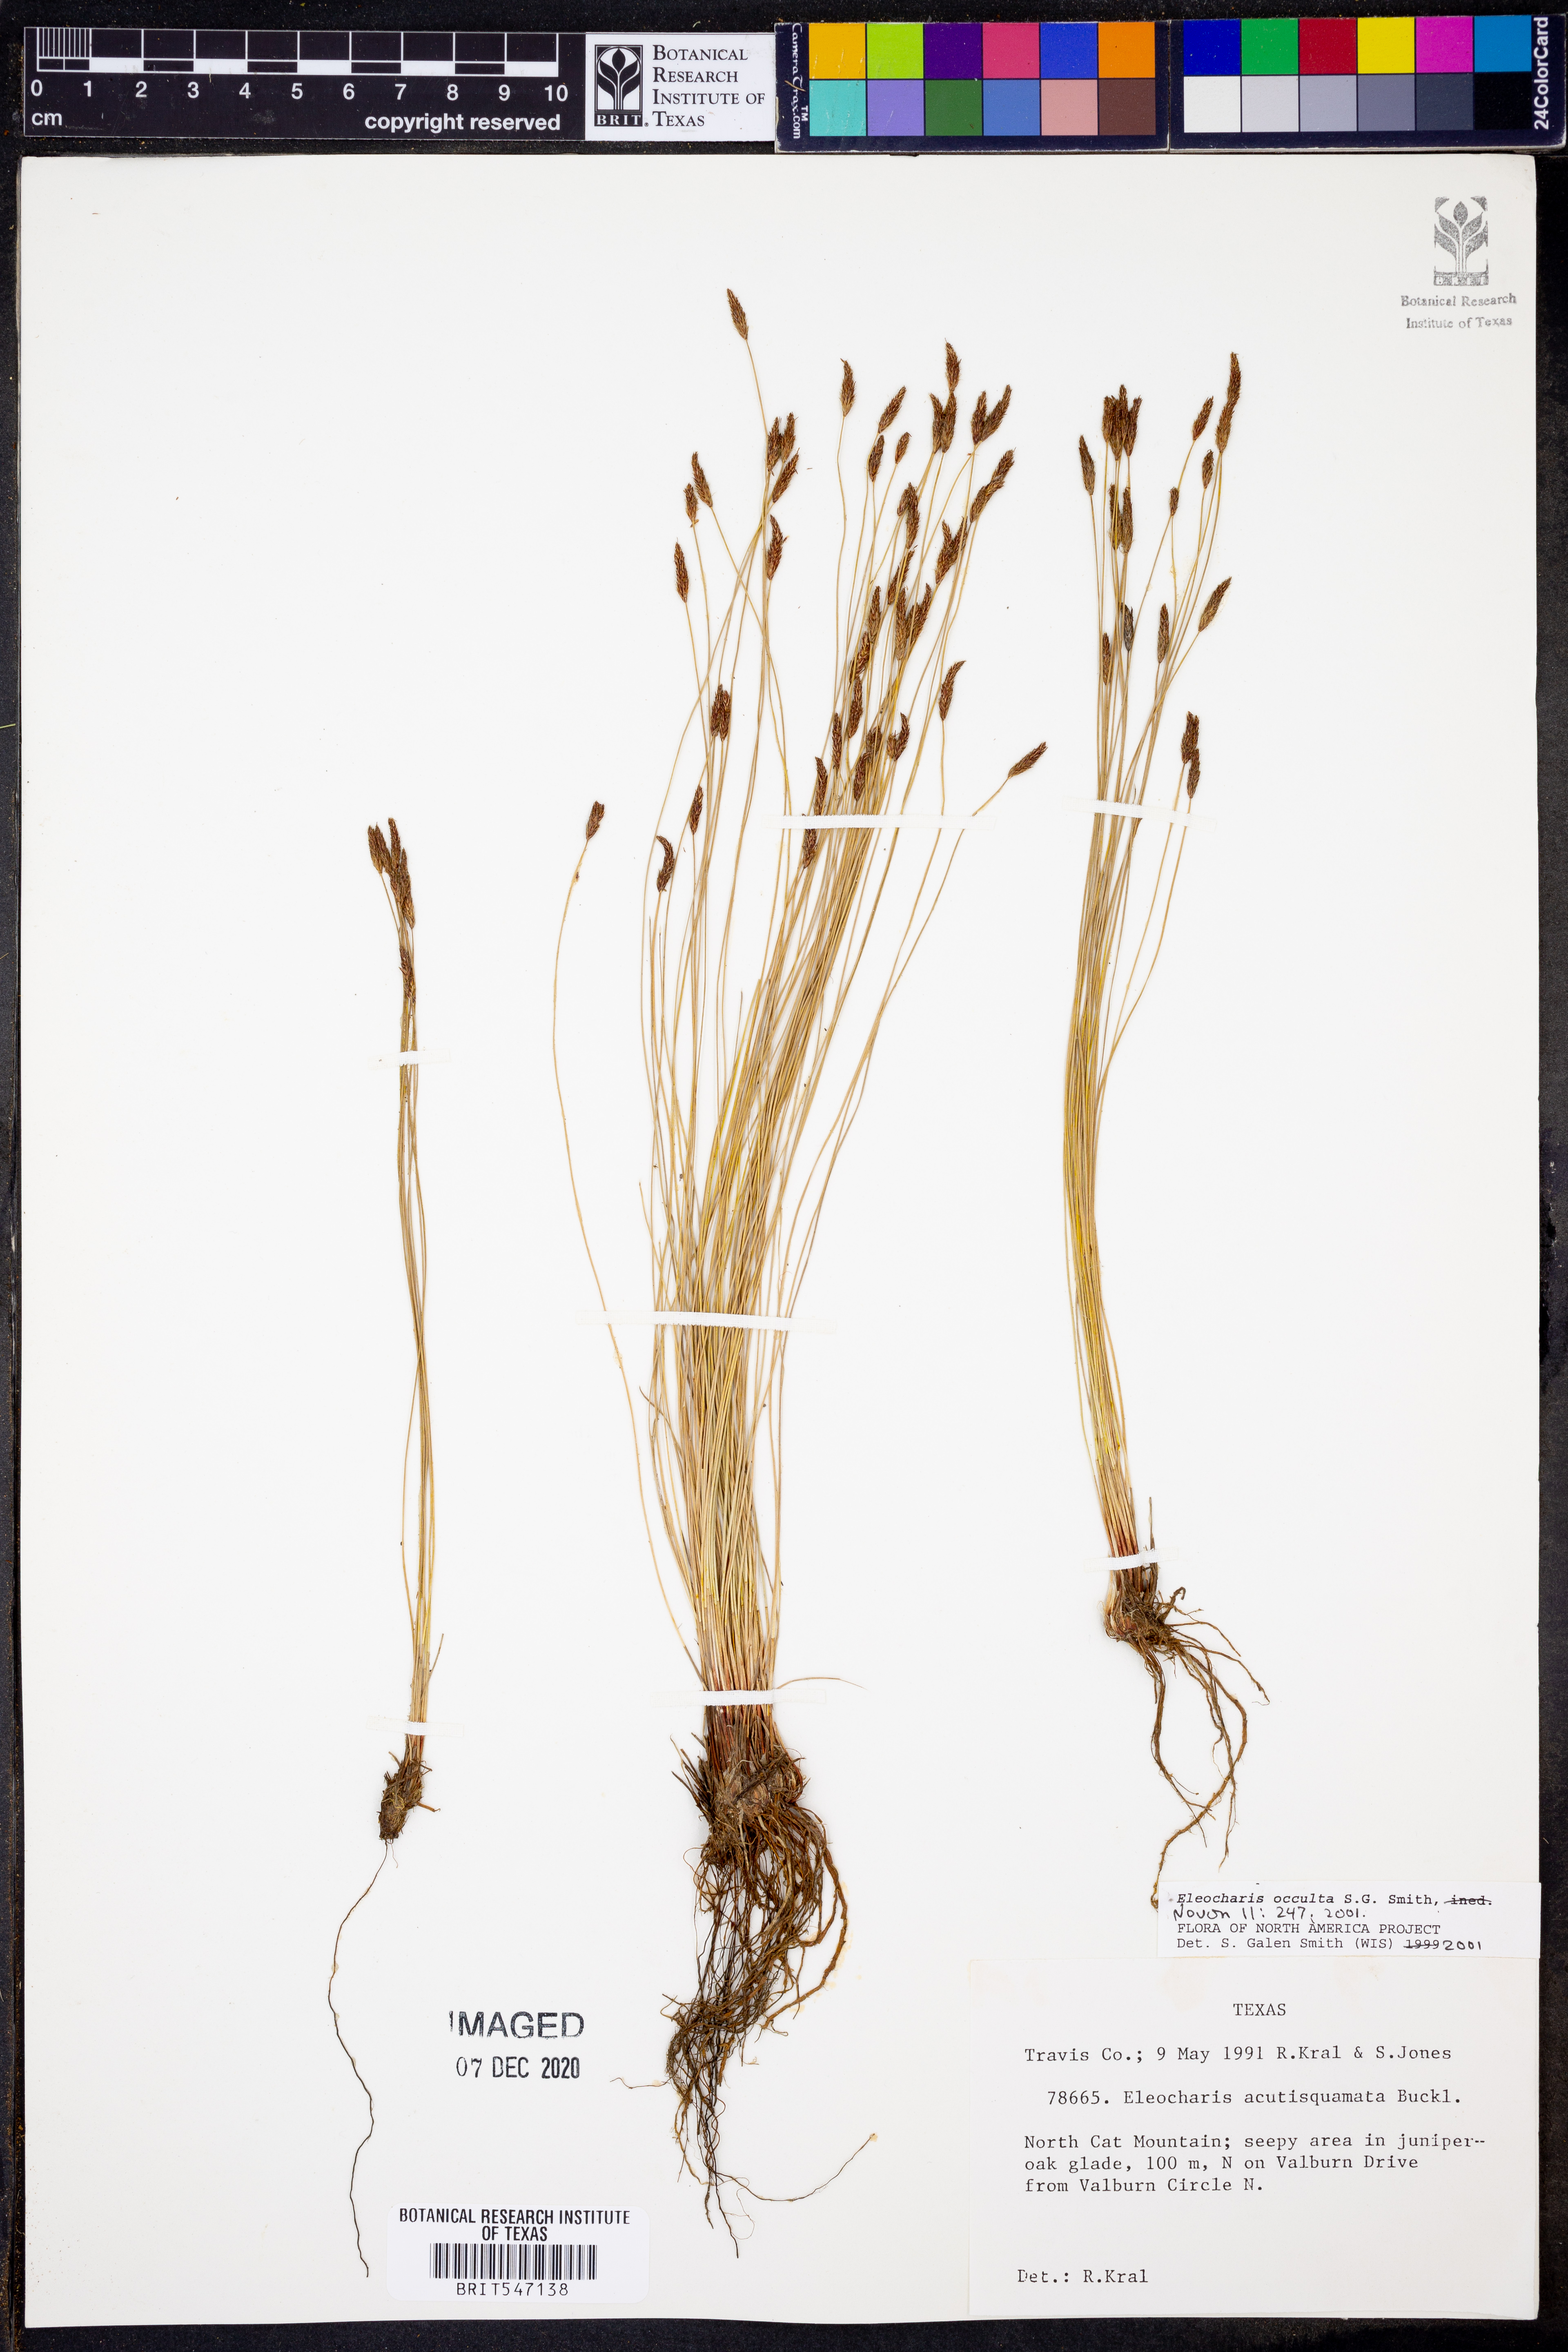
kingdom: Plantae
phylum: Tracheophyta
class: Liliopsida
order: Poales
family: Cyperaceae
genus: Eleocharis
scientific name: Eleocharis occulta
